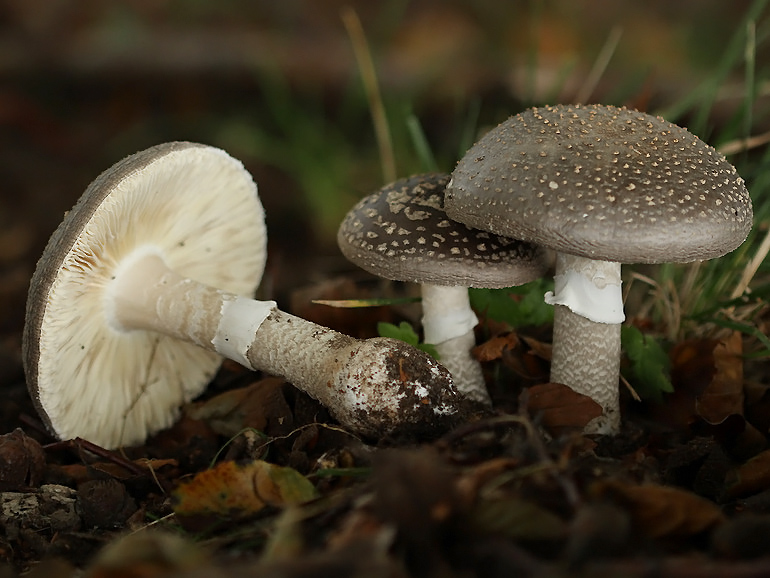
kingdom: Fungi
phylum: Basidiomycota
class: Agaricomycetes
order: Agaricales
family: Amanitaceae
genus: Amanita
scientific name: Amanita
